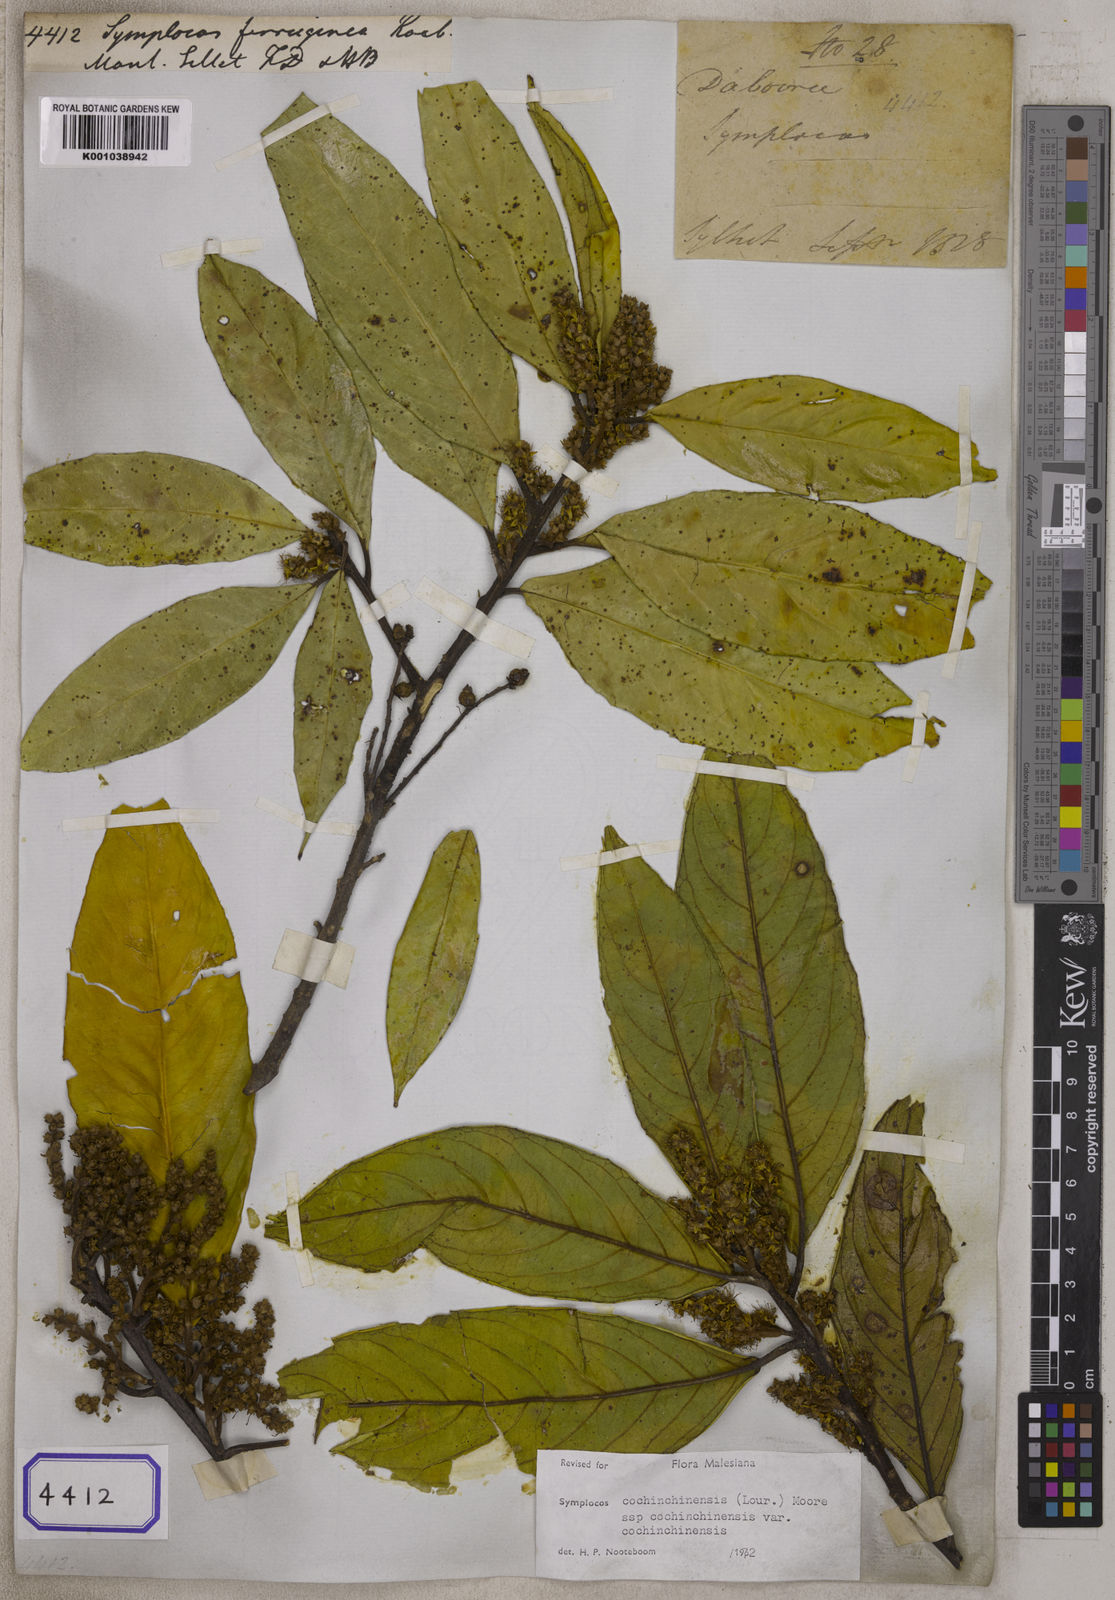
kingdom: Plantae
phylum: Tracheophyta
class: Magnoliopsida
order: Ericales
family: Symplocaceae
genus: Symplocos
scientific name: Symplocos cochinchinensis
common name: Buff hazelwood
